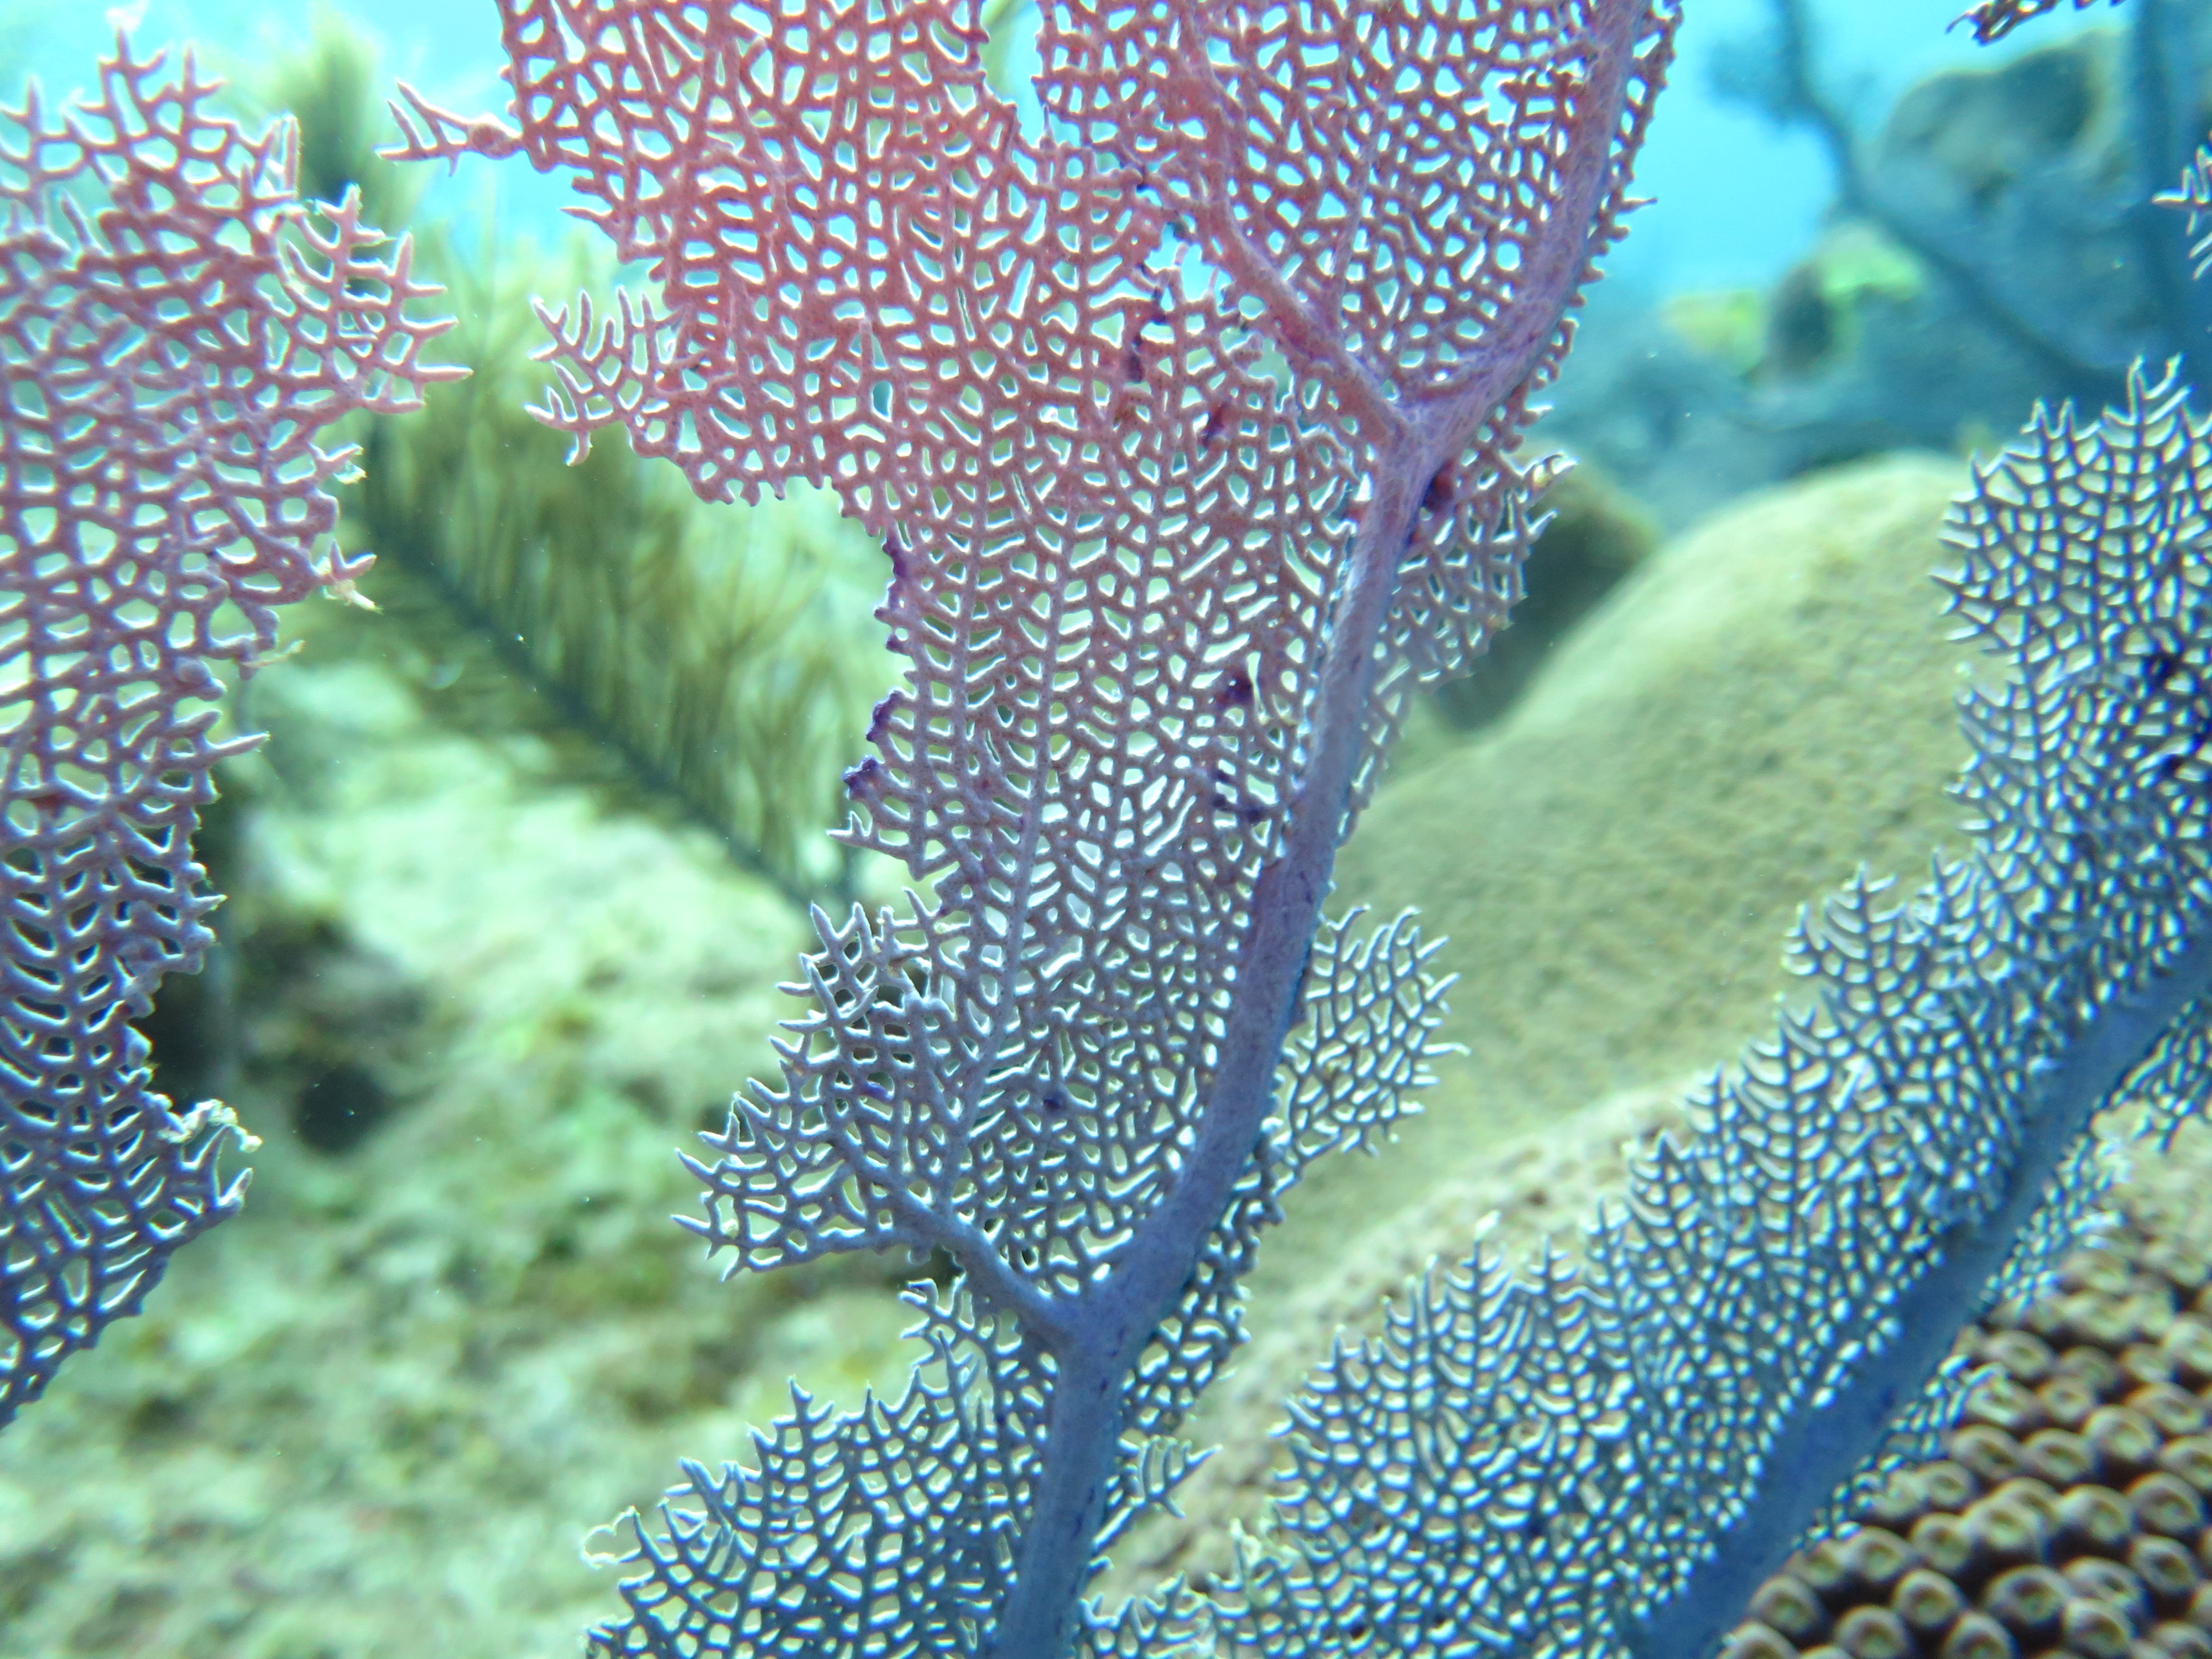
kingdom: Animalia
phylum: Cnidaria
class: Anthozoa
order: Malacalcyonacea
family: Gorgoniidae
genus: Gorgonia
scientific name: Gorgonia ventalina
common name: Common sea fan
